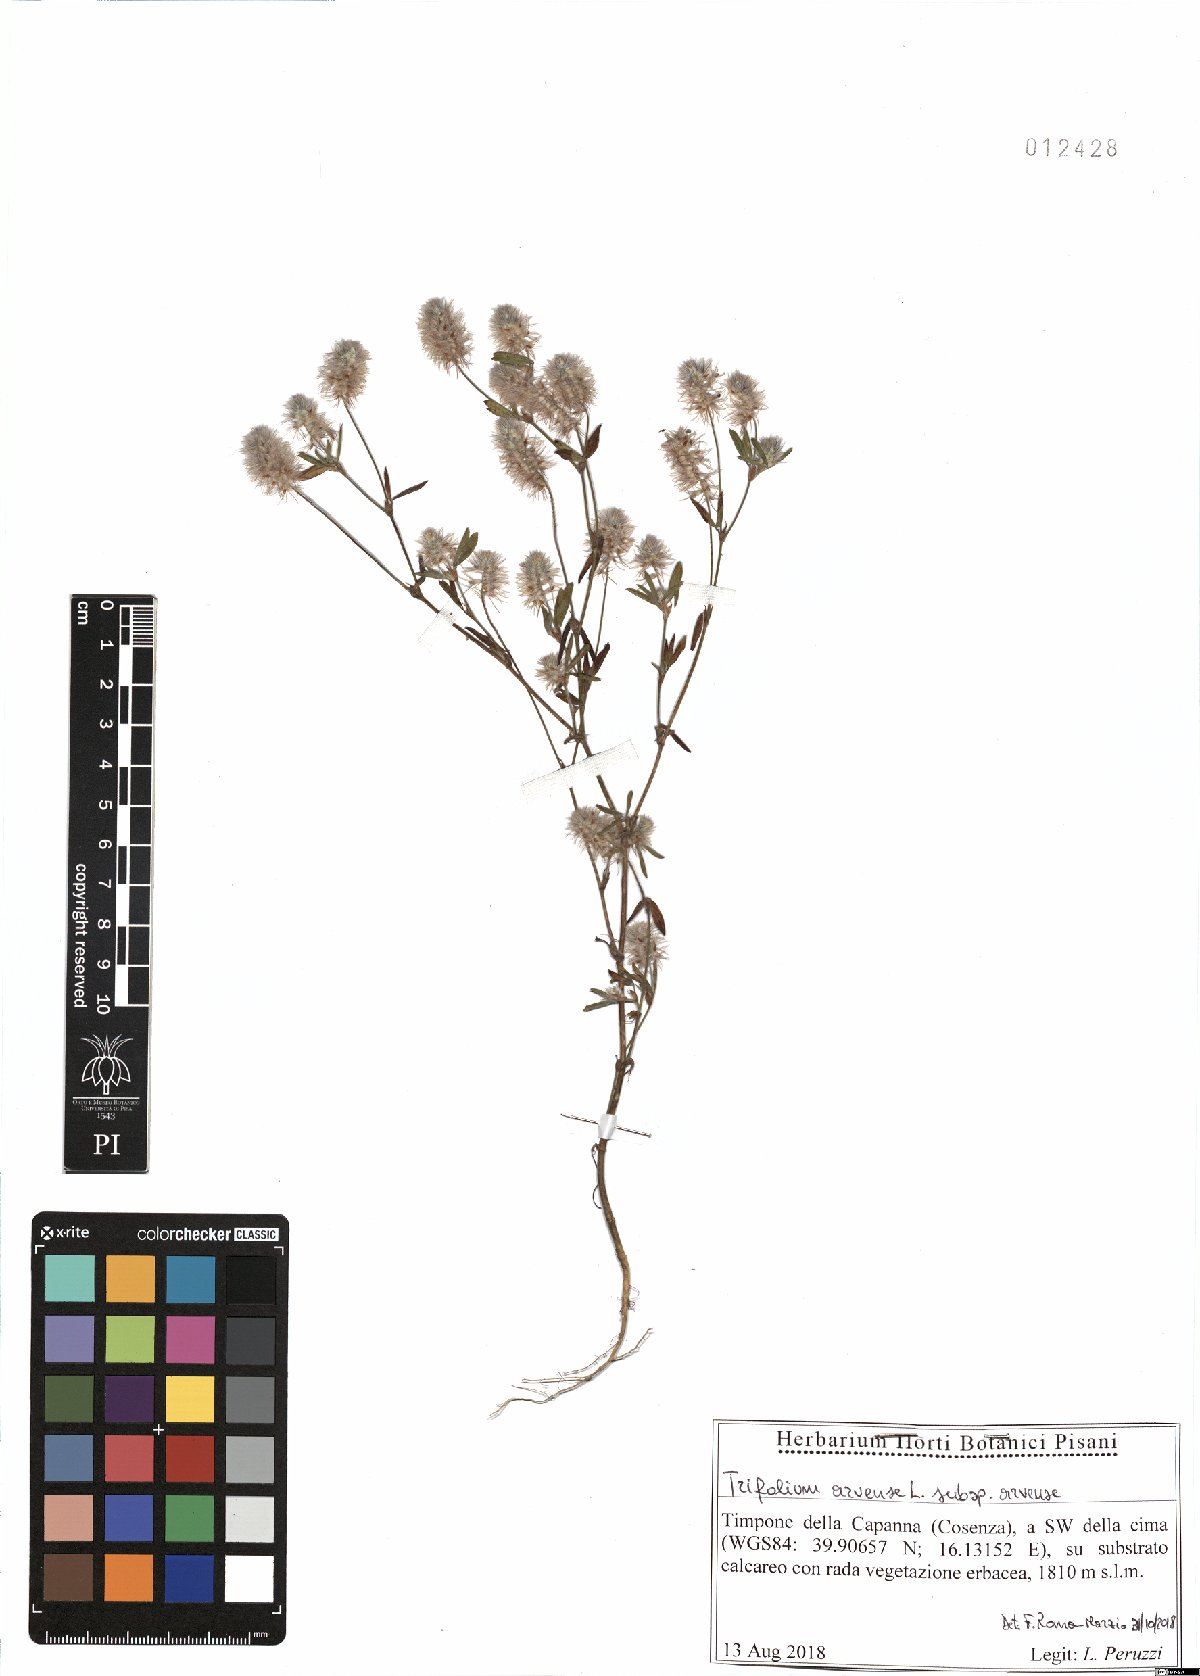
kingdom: Plantae
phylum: Tracheophyta
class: Magnoliopsida
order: Fabales
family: Fabaceae
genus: Trifolium
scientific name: Trifolium arvense
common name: Hare's-foot clover
